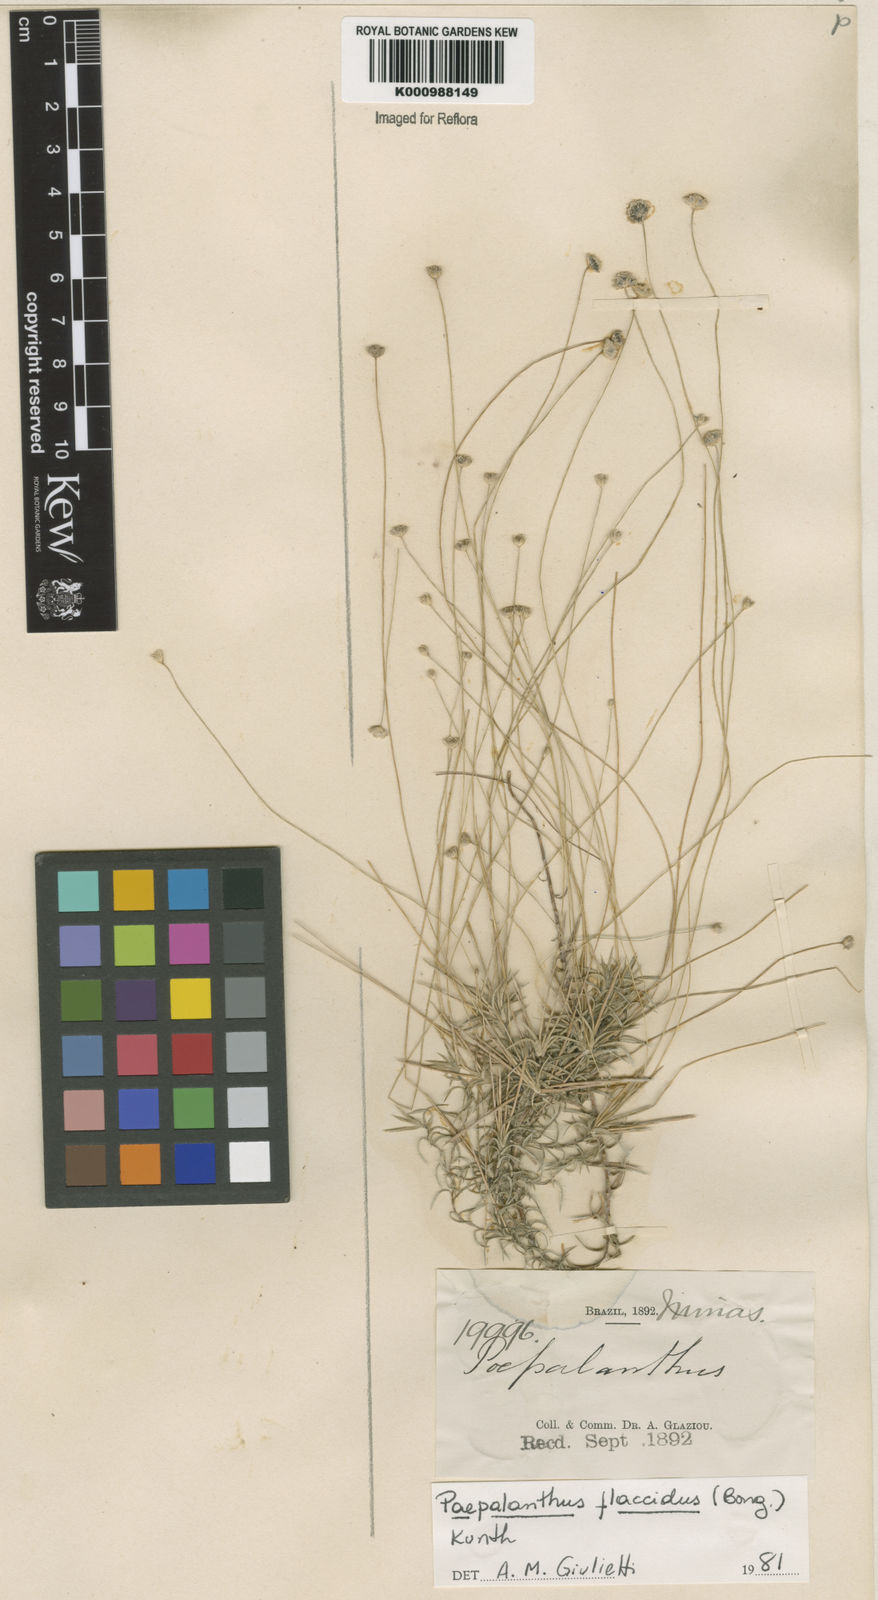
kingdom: Plantae
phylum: Tracheophyta
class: Liliopsida
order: Poales
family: Eriocaulaceae
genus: Paepalanthus
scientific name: Paepalanthus flaccidus
